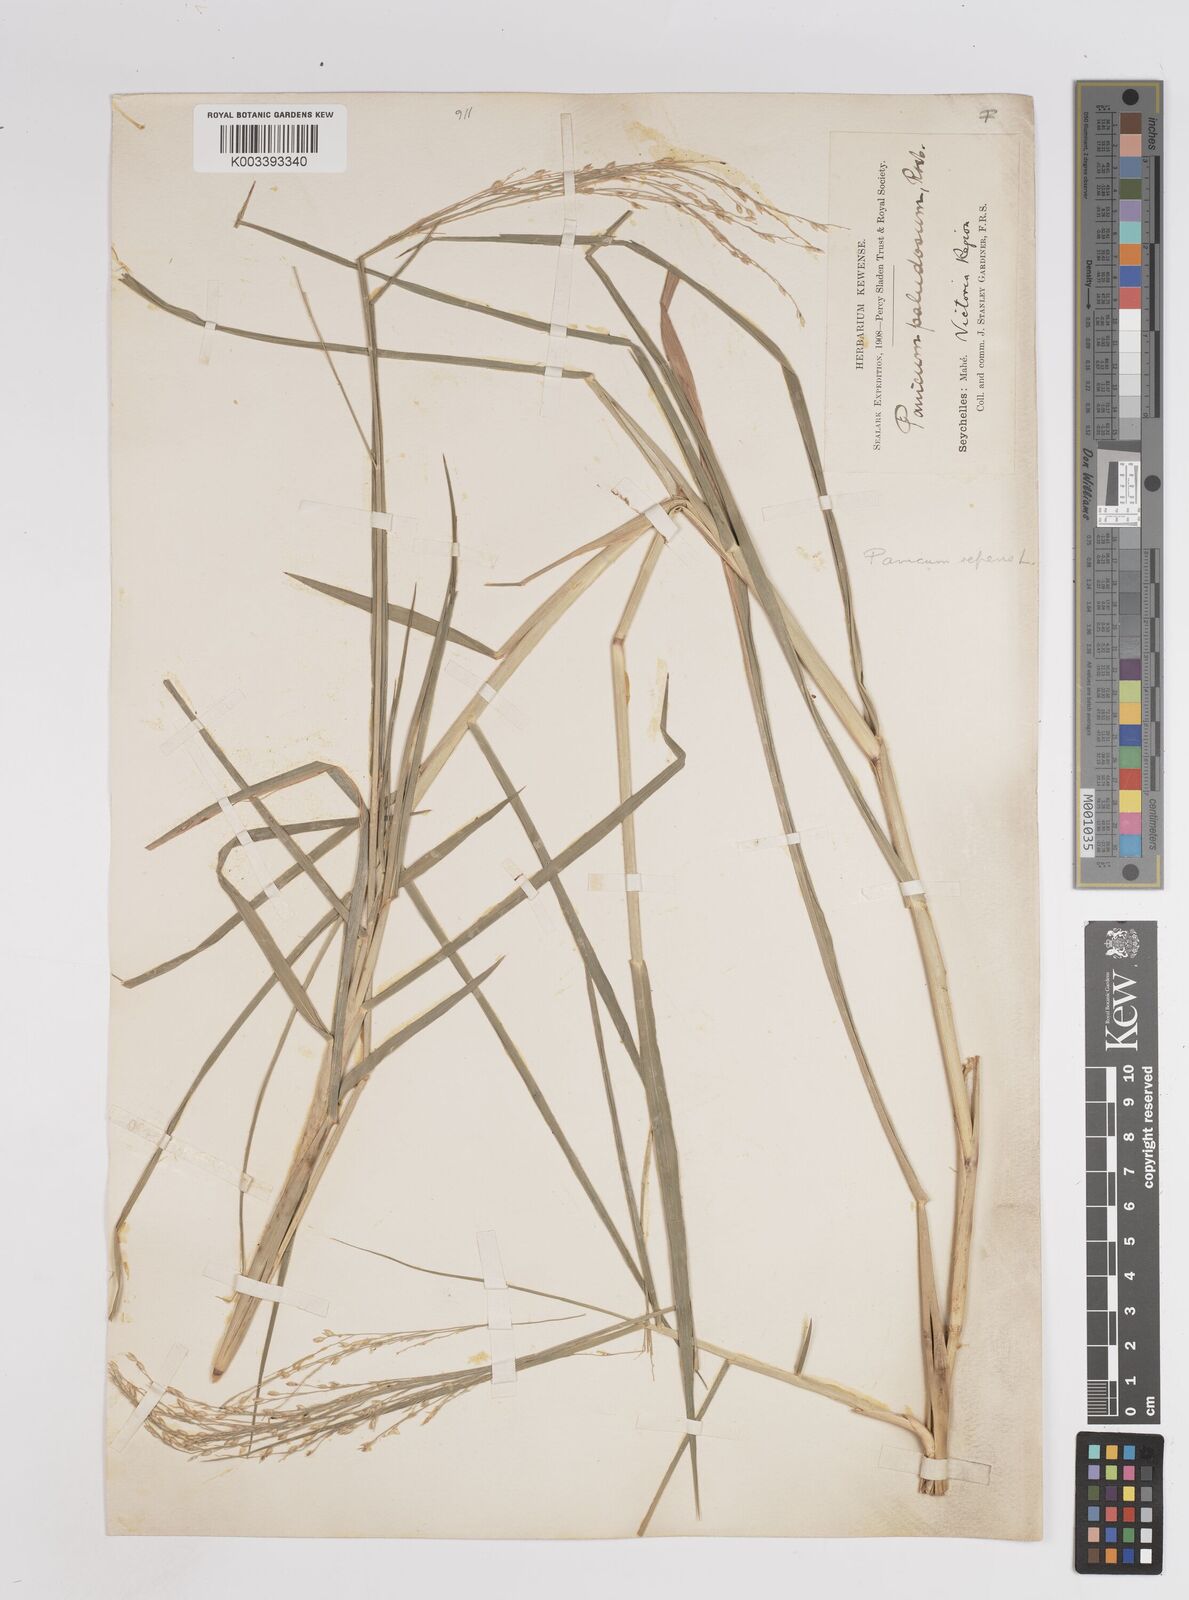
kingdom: Plantae
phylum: Tracheophyta
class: Liliopsida
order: Poales
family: Poaceae
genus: Panicum
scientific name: Panicum repens
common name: Torpedo grass
